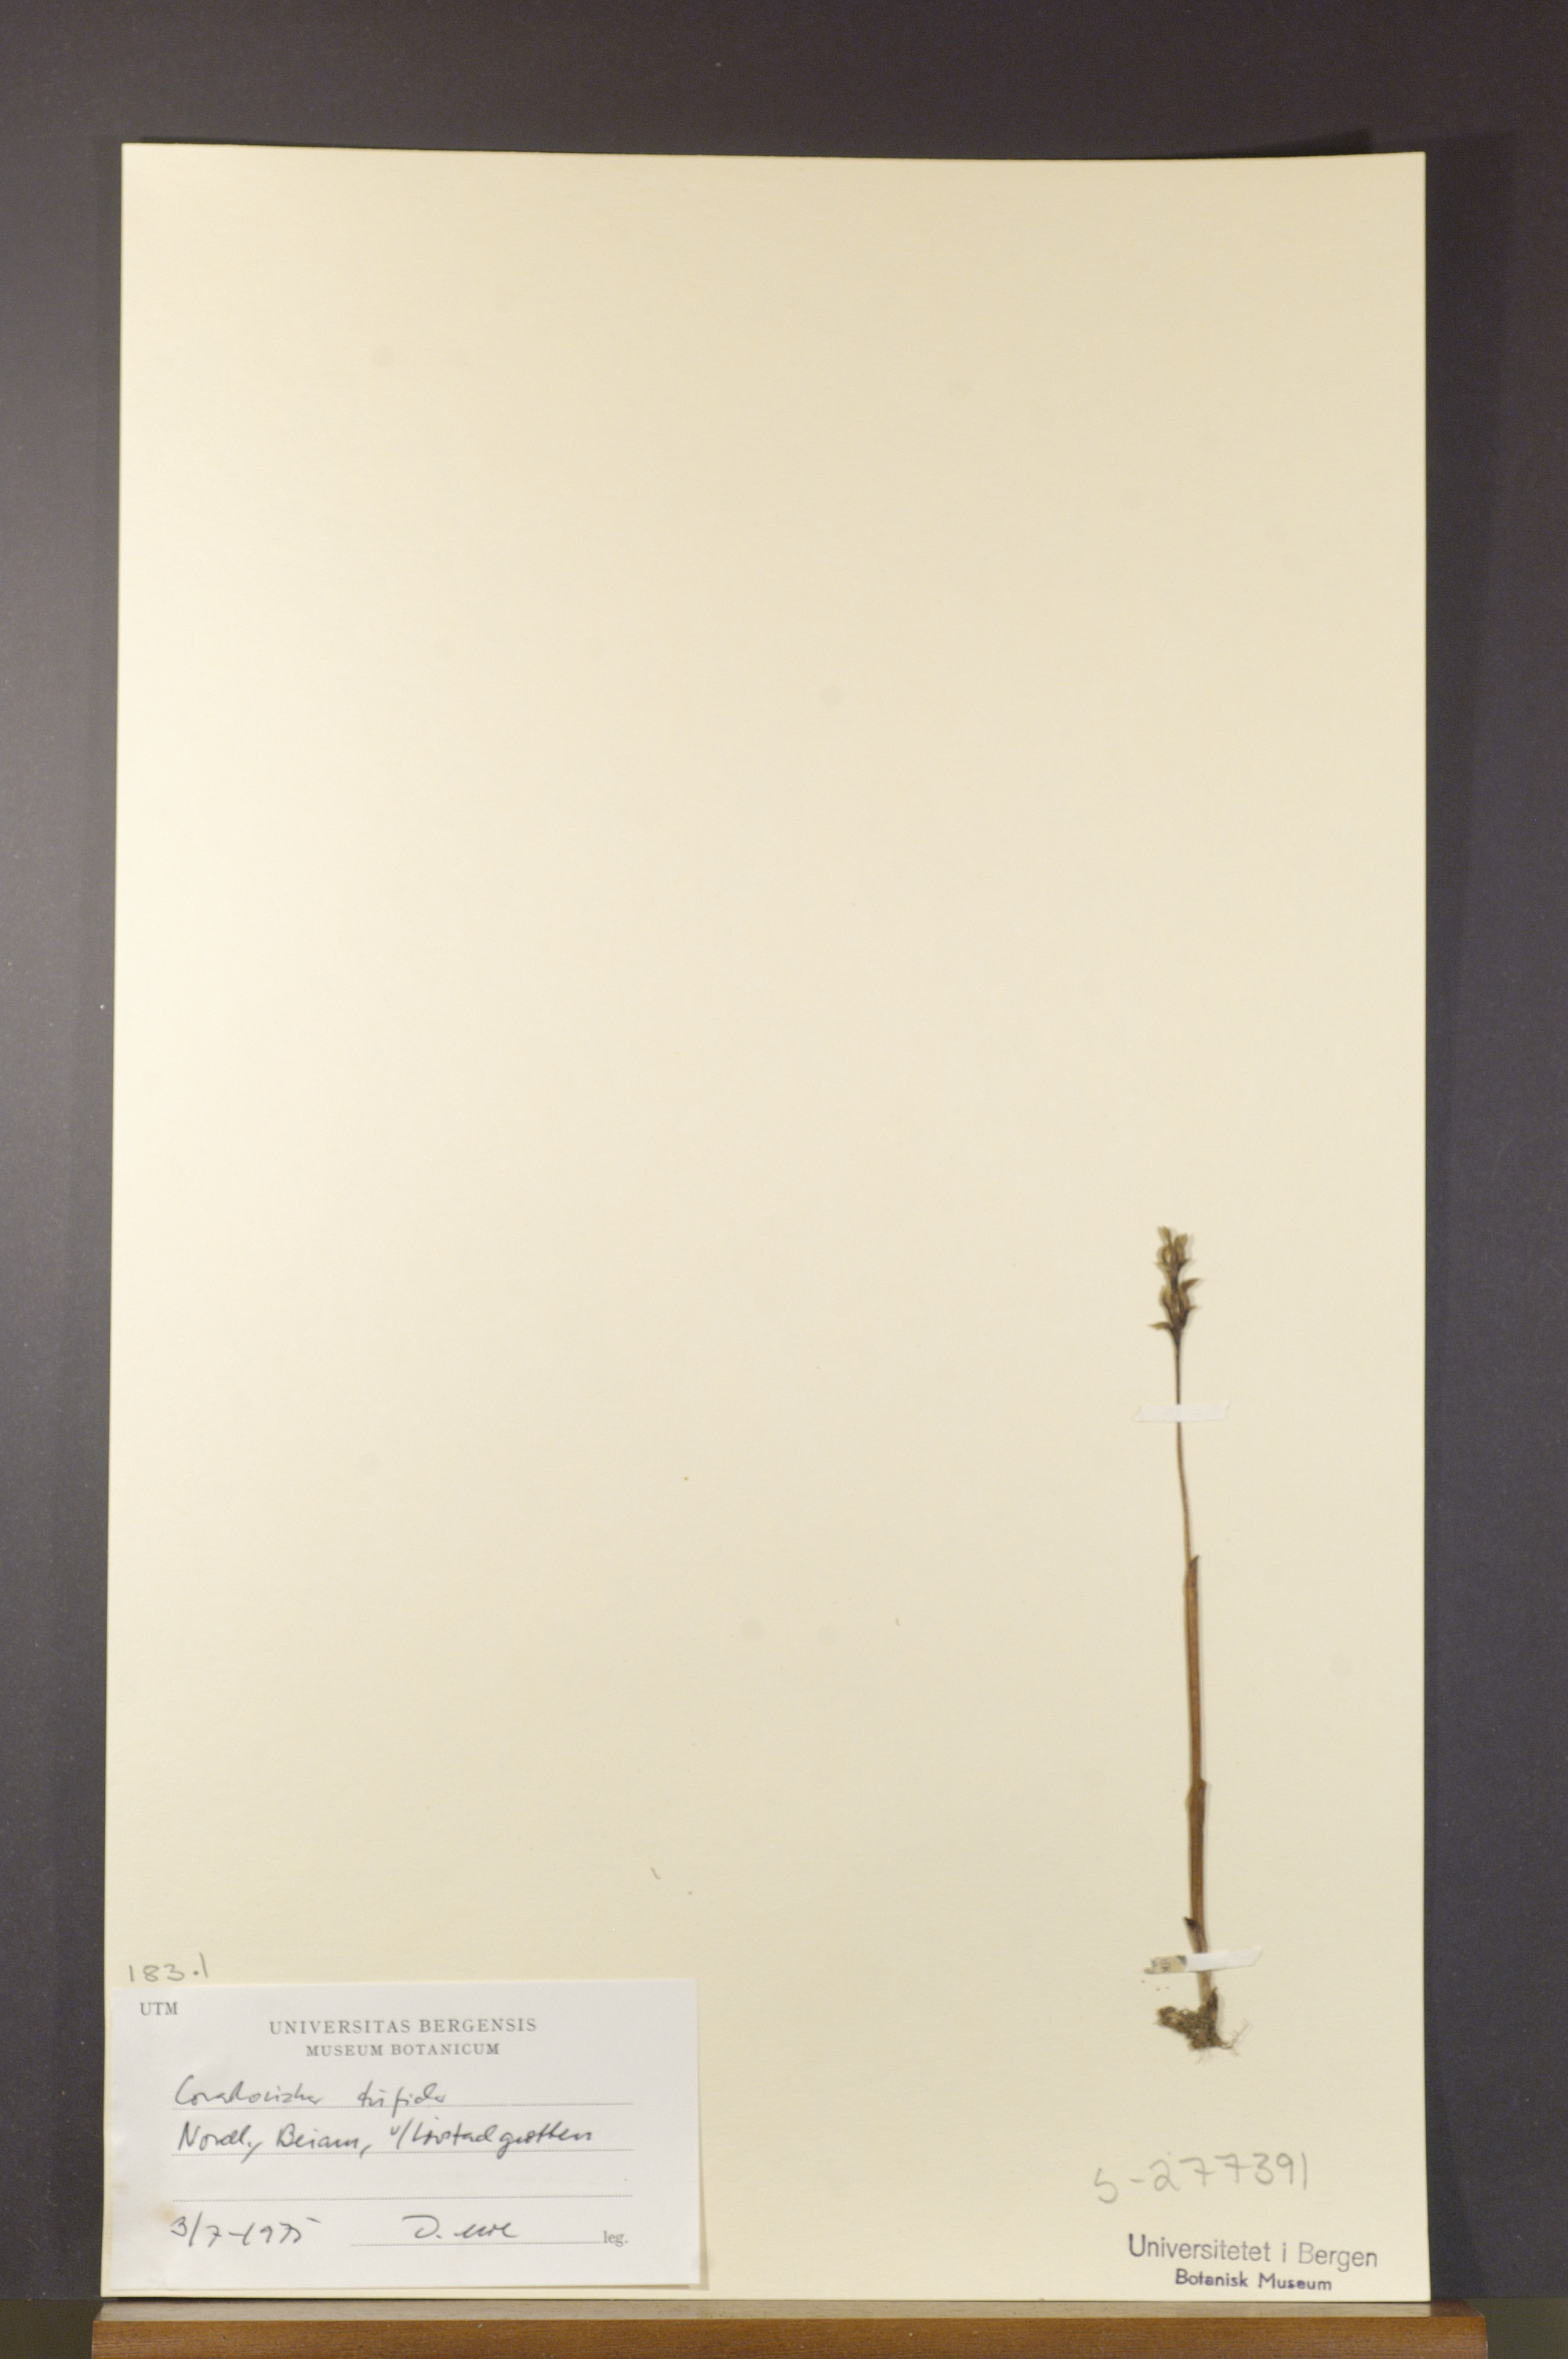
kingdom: Plantae
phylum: Tracheophyta
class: Liliopsida
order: Asparagales
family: Orchidaceae
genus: Corallorhiza
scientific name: Corallorhiza trifida
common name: Yellow coralroot
